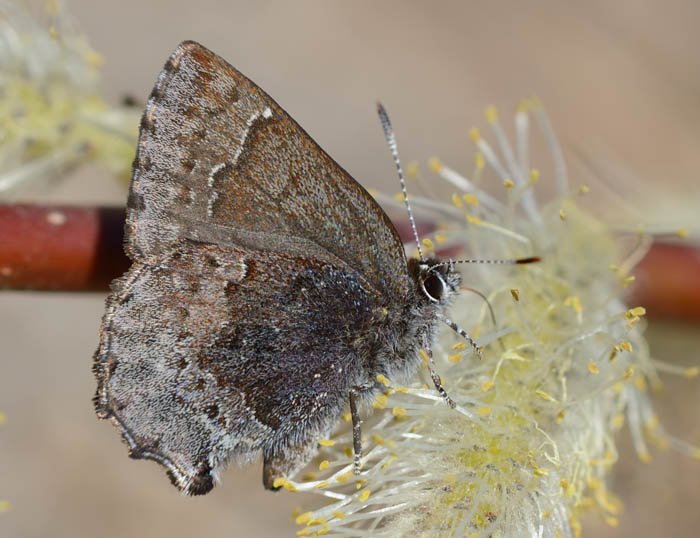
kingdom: Animalia
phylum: Arthropoda
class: Insecta
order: Lepidoptera
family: Lycaenidae
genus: Callophrys
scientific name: Callophrys polios
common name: Hoary Elfin
